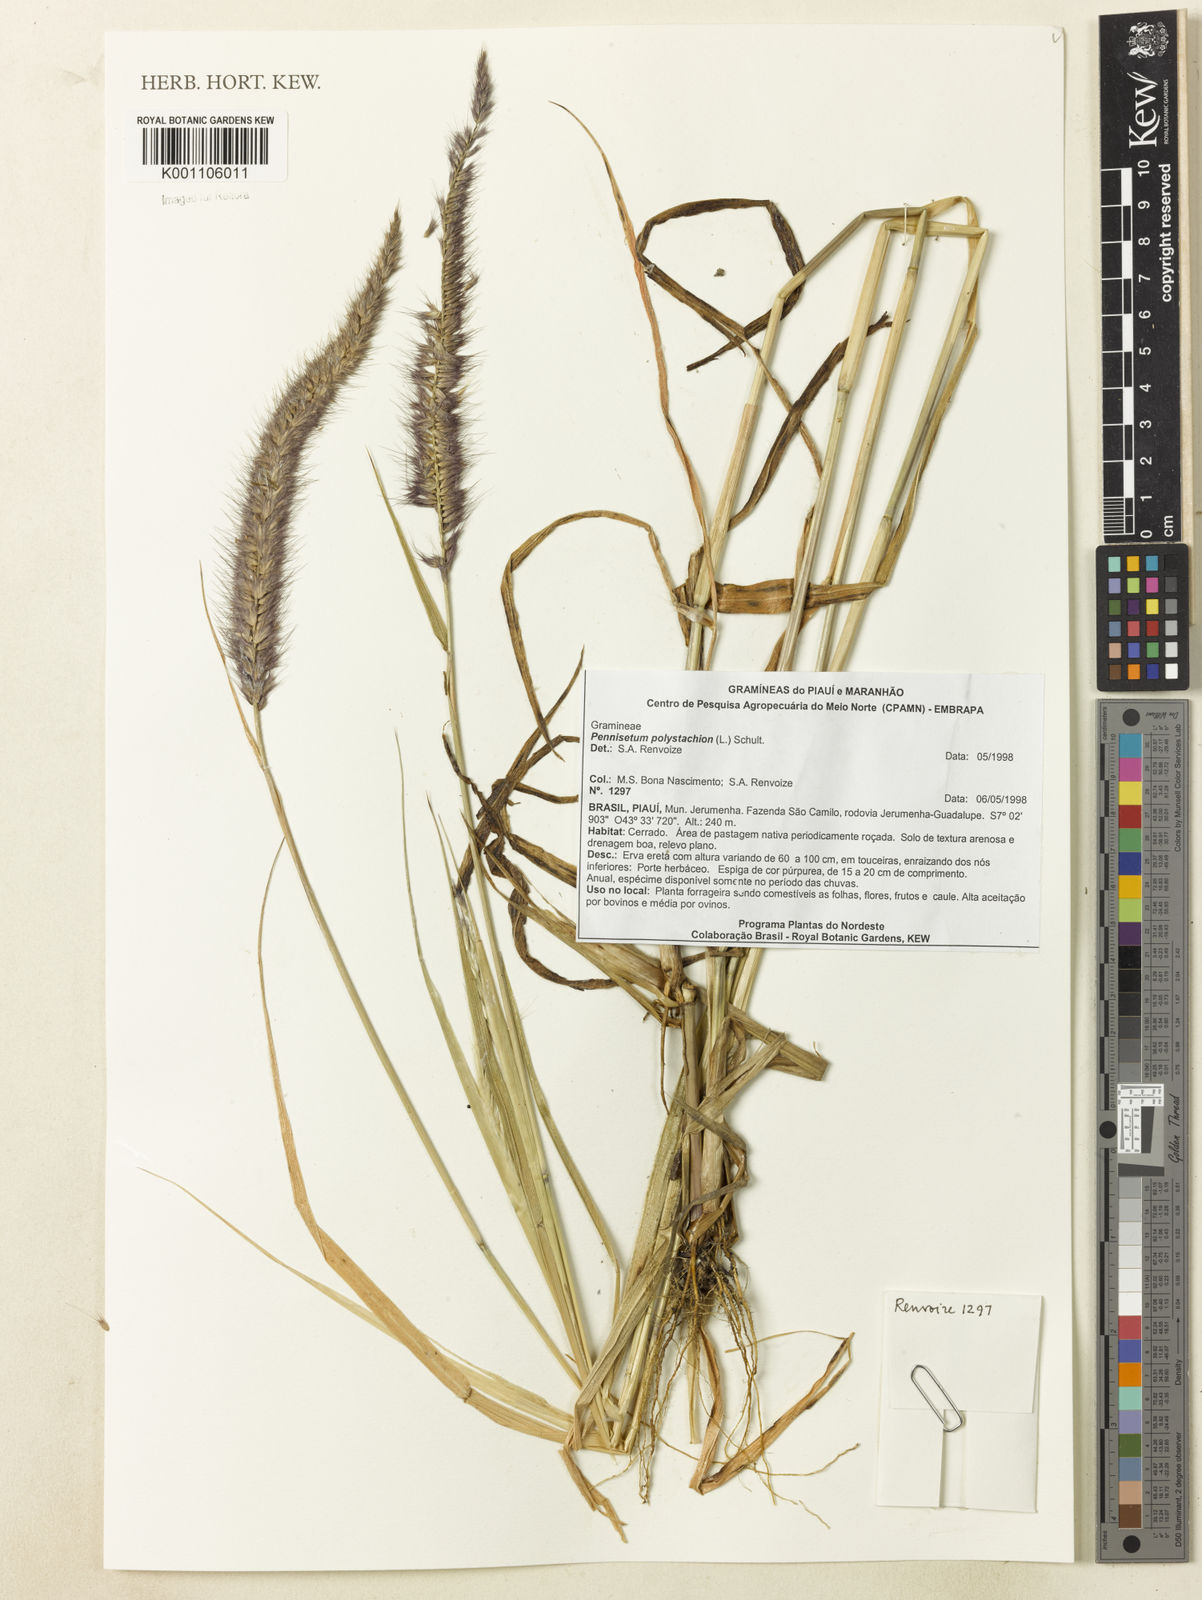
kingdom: Plantae
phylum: Tracheophyta
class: Liliopsida
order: Poales
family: Poaceae
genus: Setaria
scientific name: Setaria parviflora
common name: Knotroot bristle-grass
